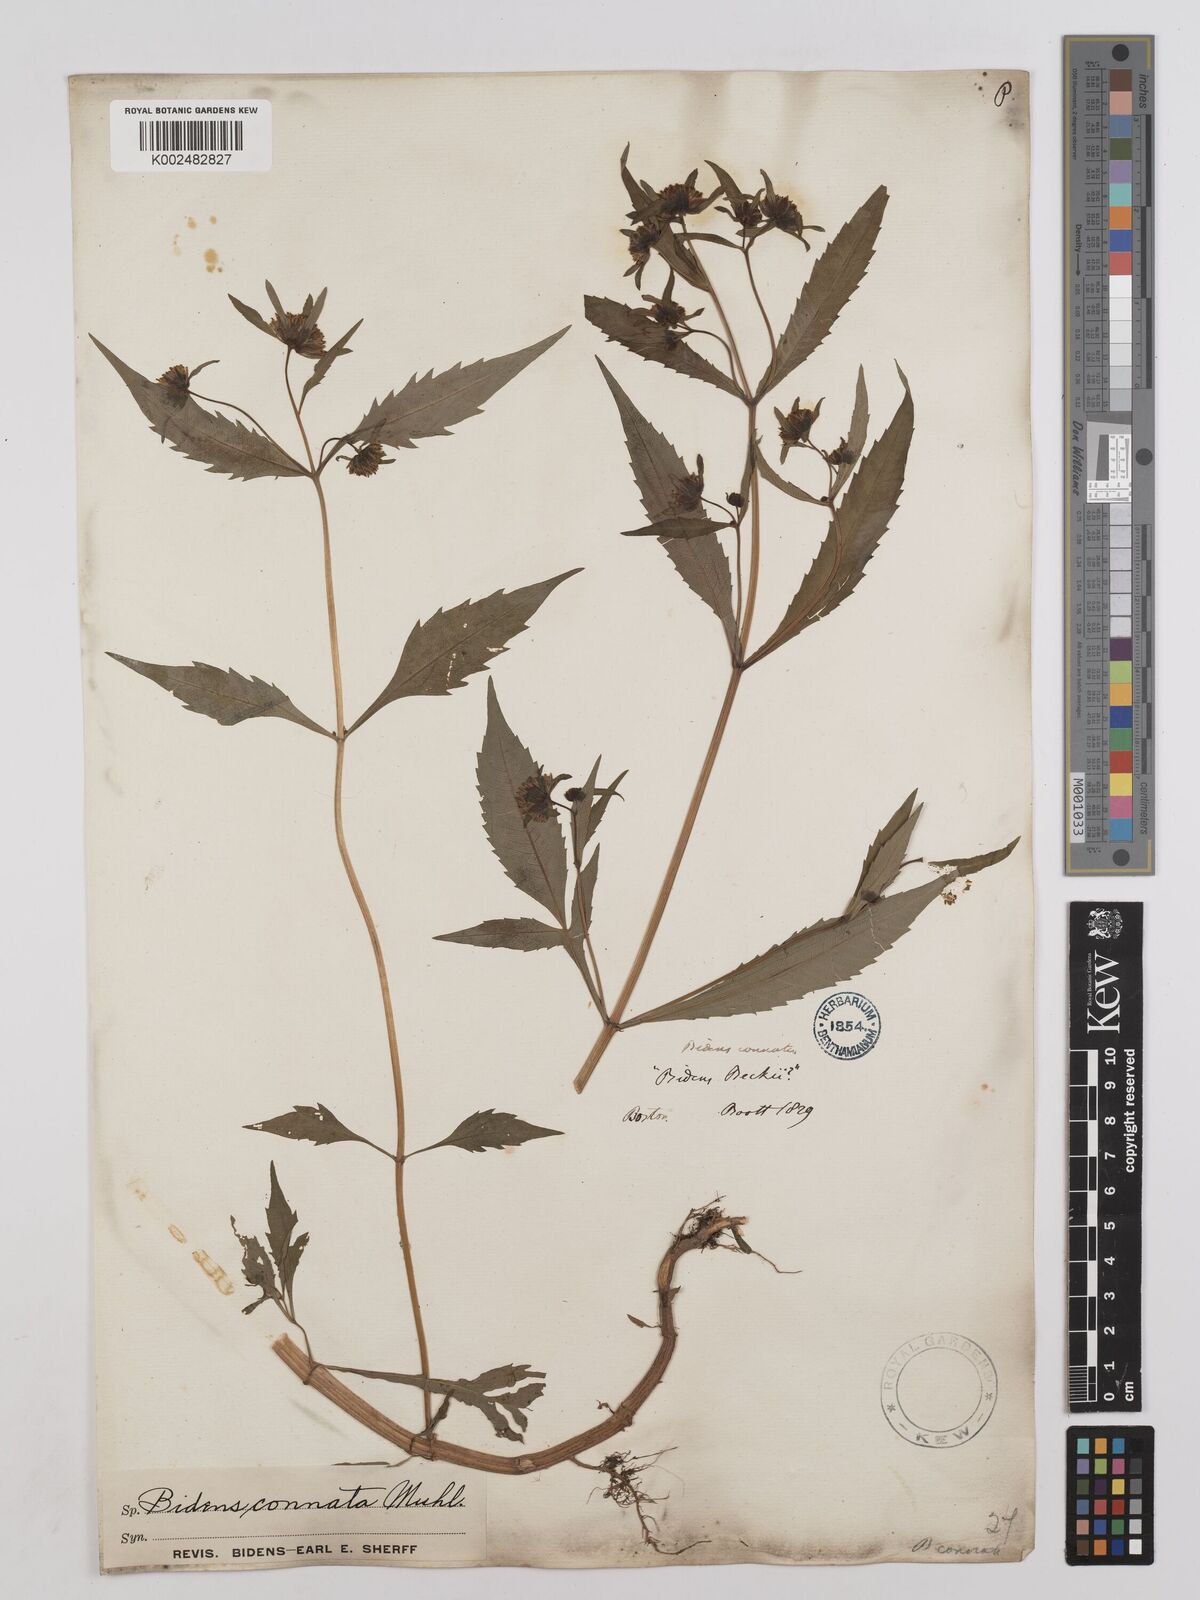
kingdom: Plantae
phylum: Tracheophyta
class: Magnoliopsida
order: Asterales
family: Asteraceae
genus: Bidens
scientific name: Bidens connata
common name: London bur-marigold
